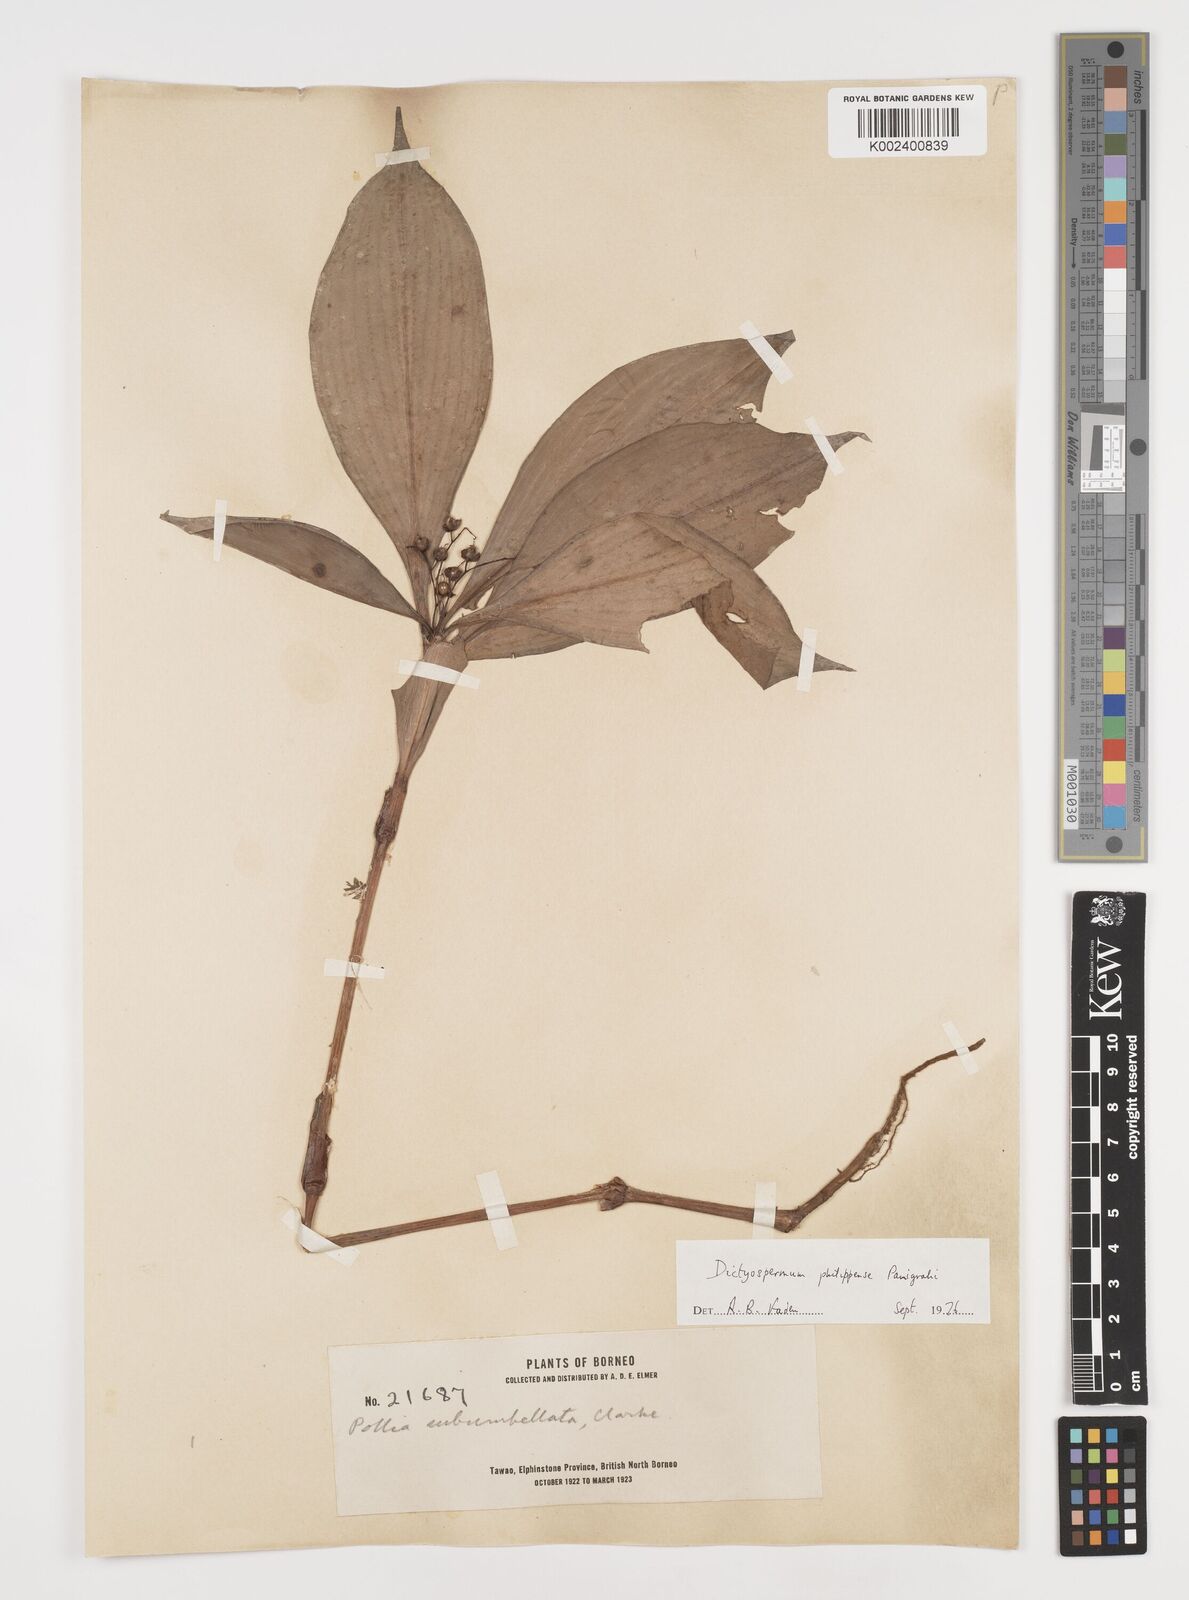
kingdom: Plantae
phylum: Tracheophyta
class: Liliopsida
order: Commelinales
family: Commelinaceae
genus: Tricarpelema
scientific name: Tricarpelema philippense
